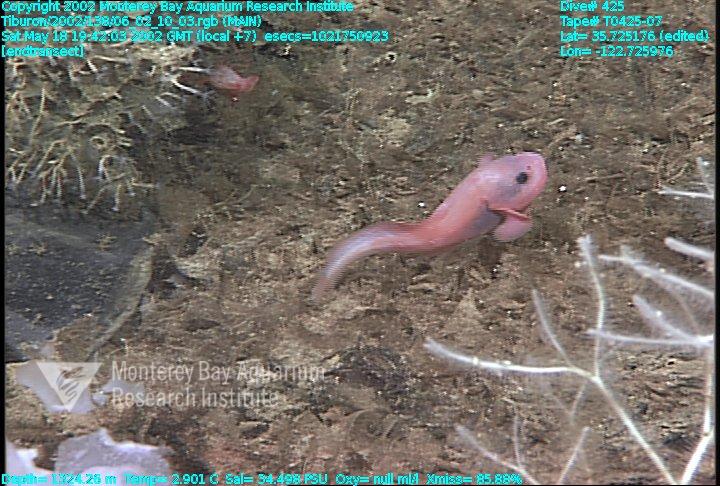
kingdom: Animalia
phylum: Porifera
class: Demospongiae
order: Poecilosclerida
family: Cladorhizidae
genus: Asbestopluma
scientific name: Asbestopluma monticola
